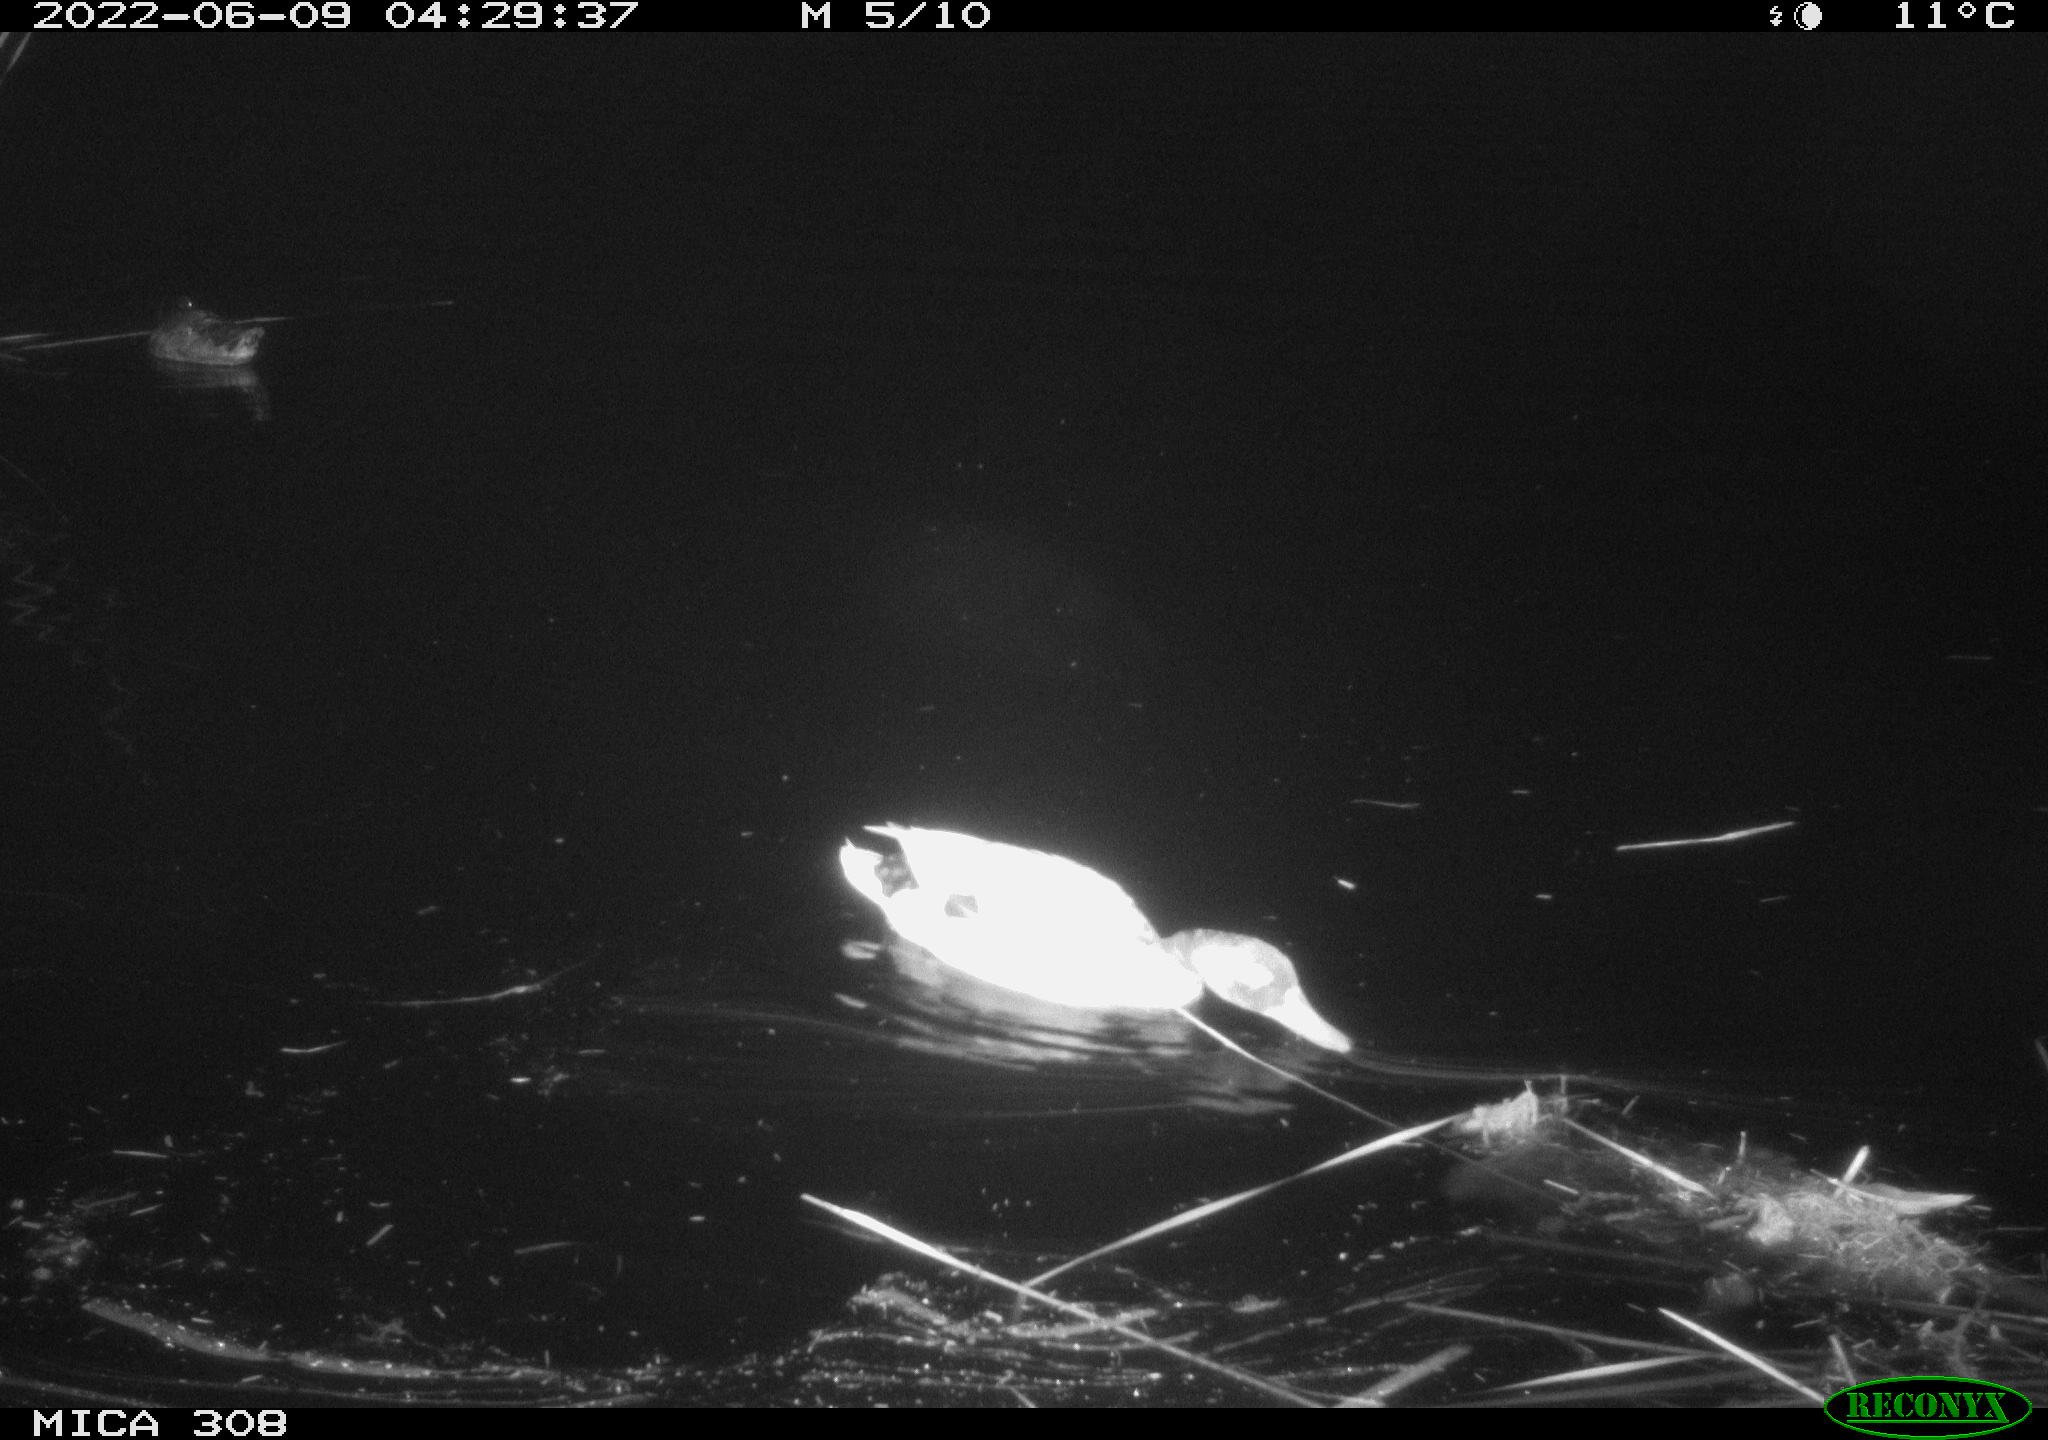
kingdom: Animalia
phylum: Chordata
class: Aves
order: Gruiformes
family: Rallidae
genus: Gallinula
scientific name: Gallinula chloropus
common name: Common moorhen
